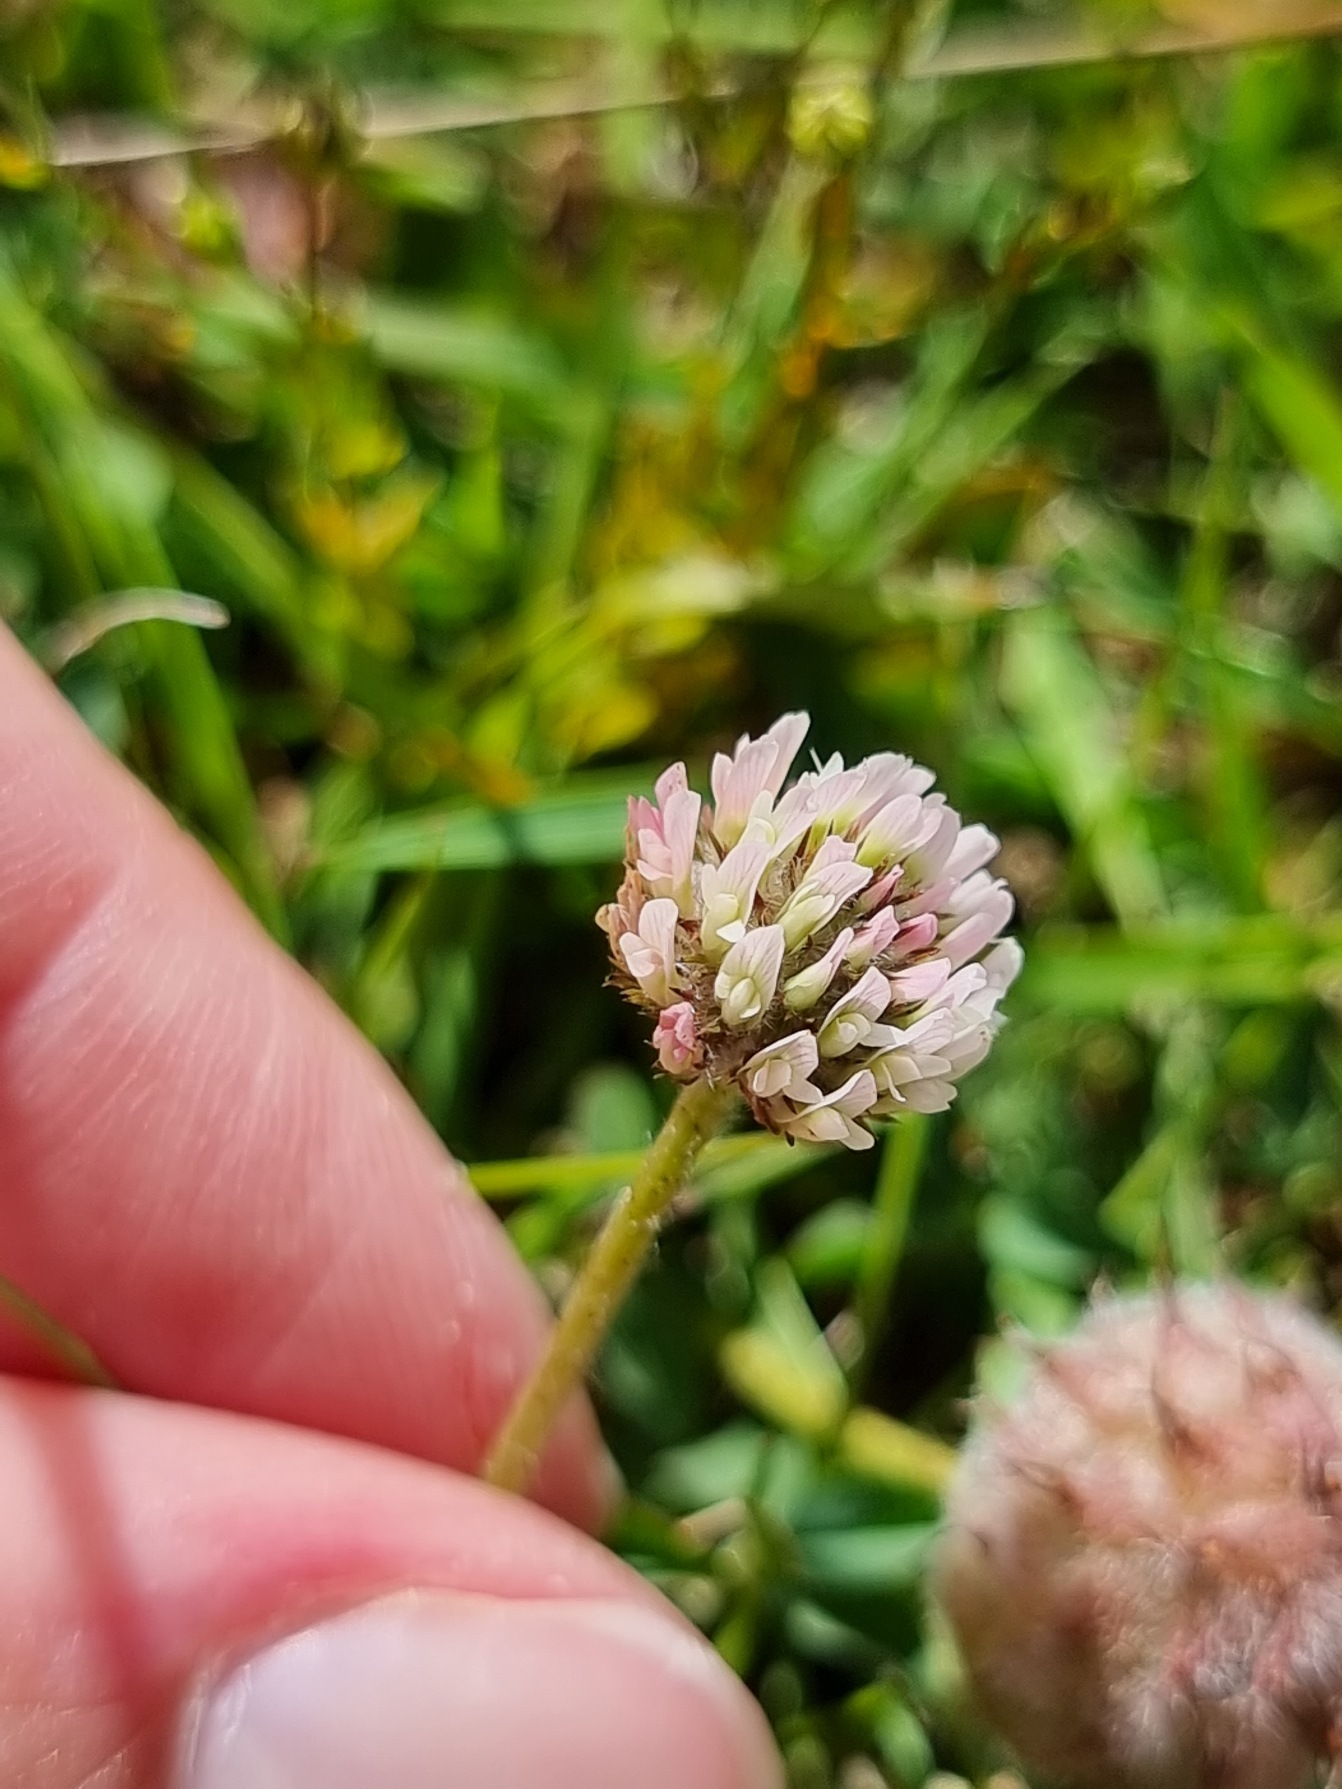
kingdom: Plantae
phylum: Tracheophyta
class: Magnoliopsida
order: Fabales
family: Fabaceae
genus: Trifolium
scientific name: Trifolium fragiferum
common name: Jordbær-kløver
